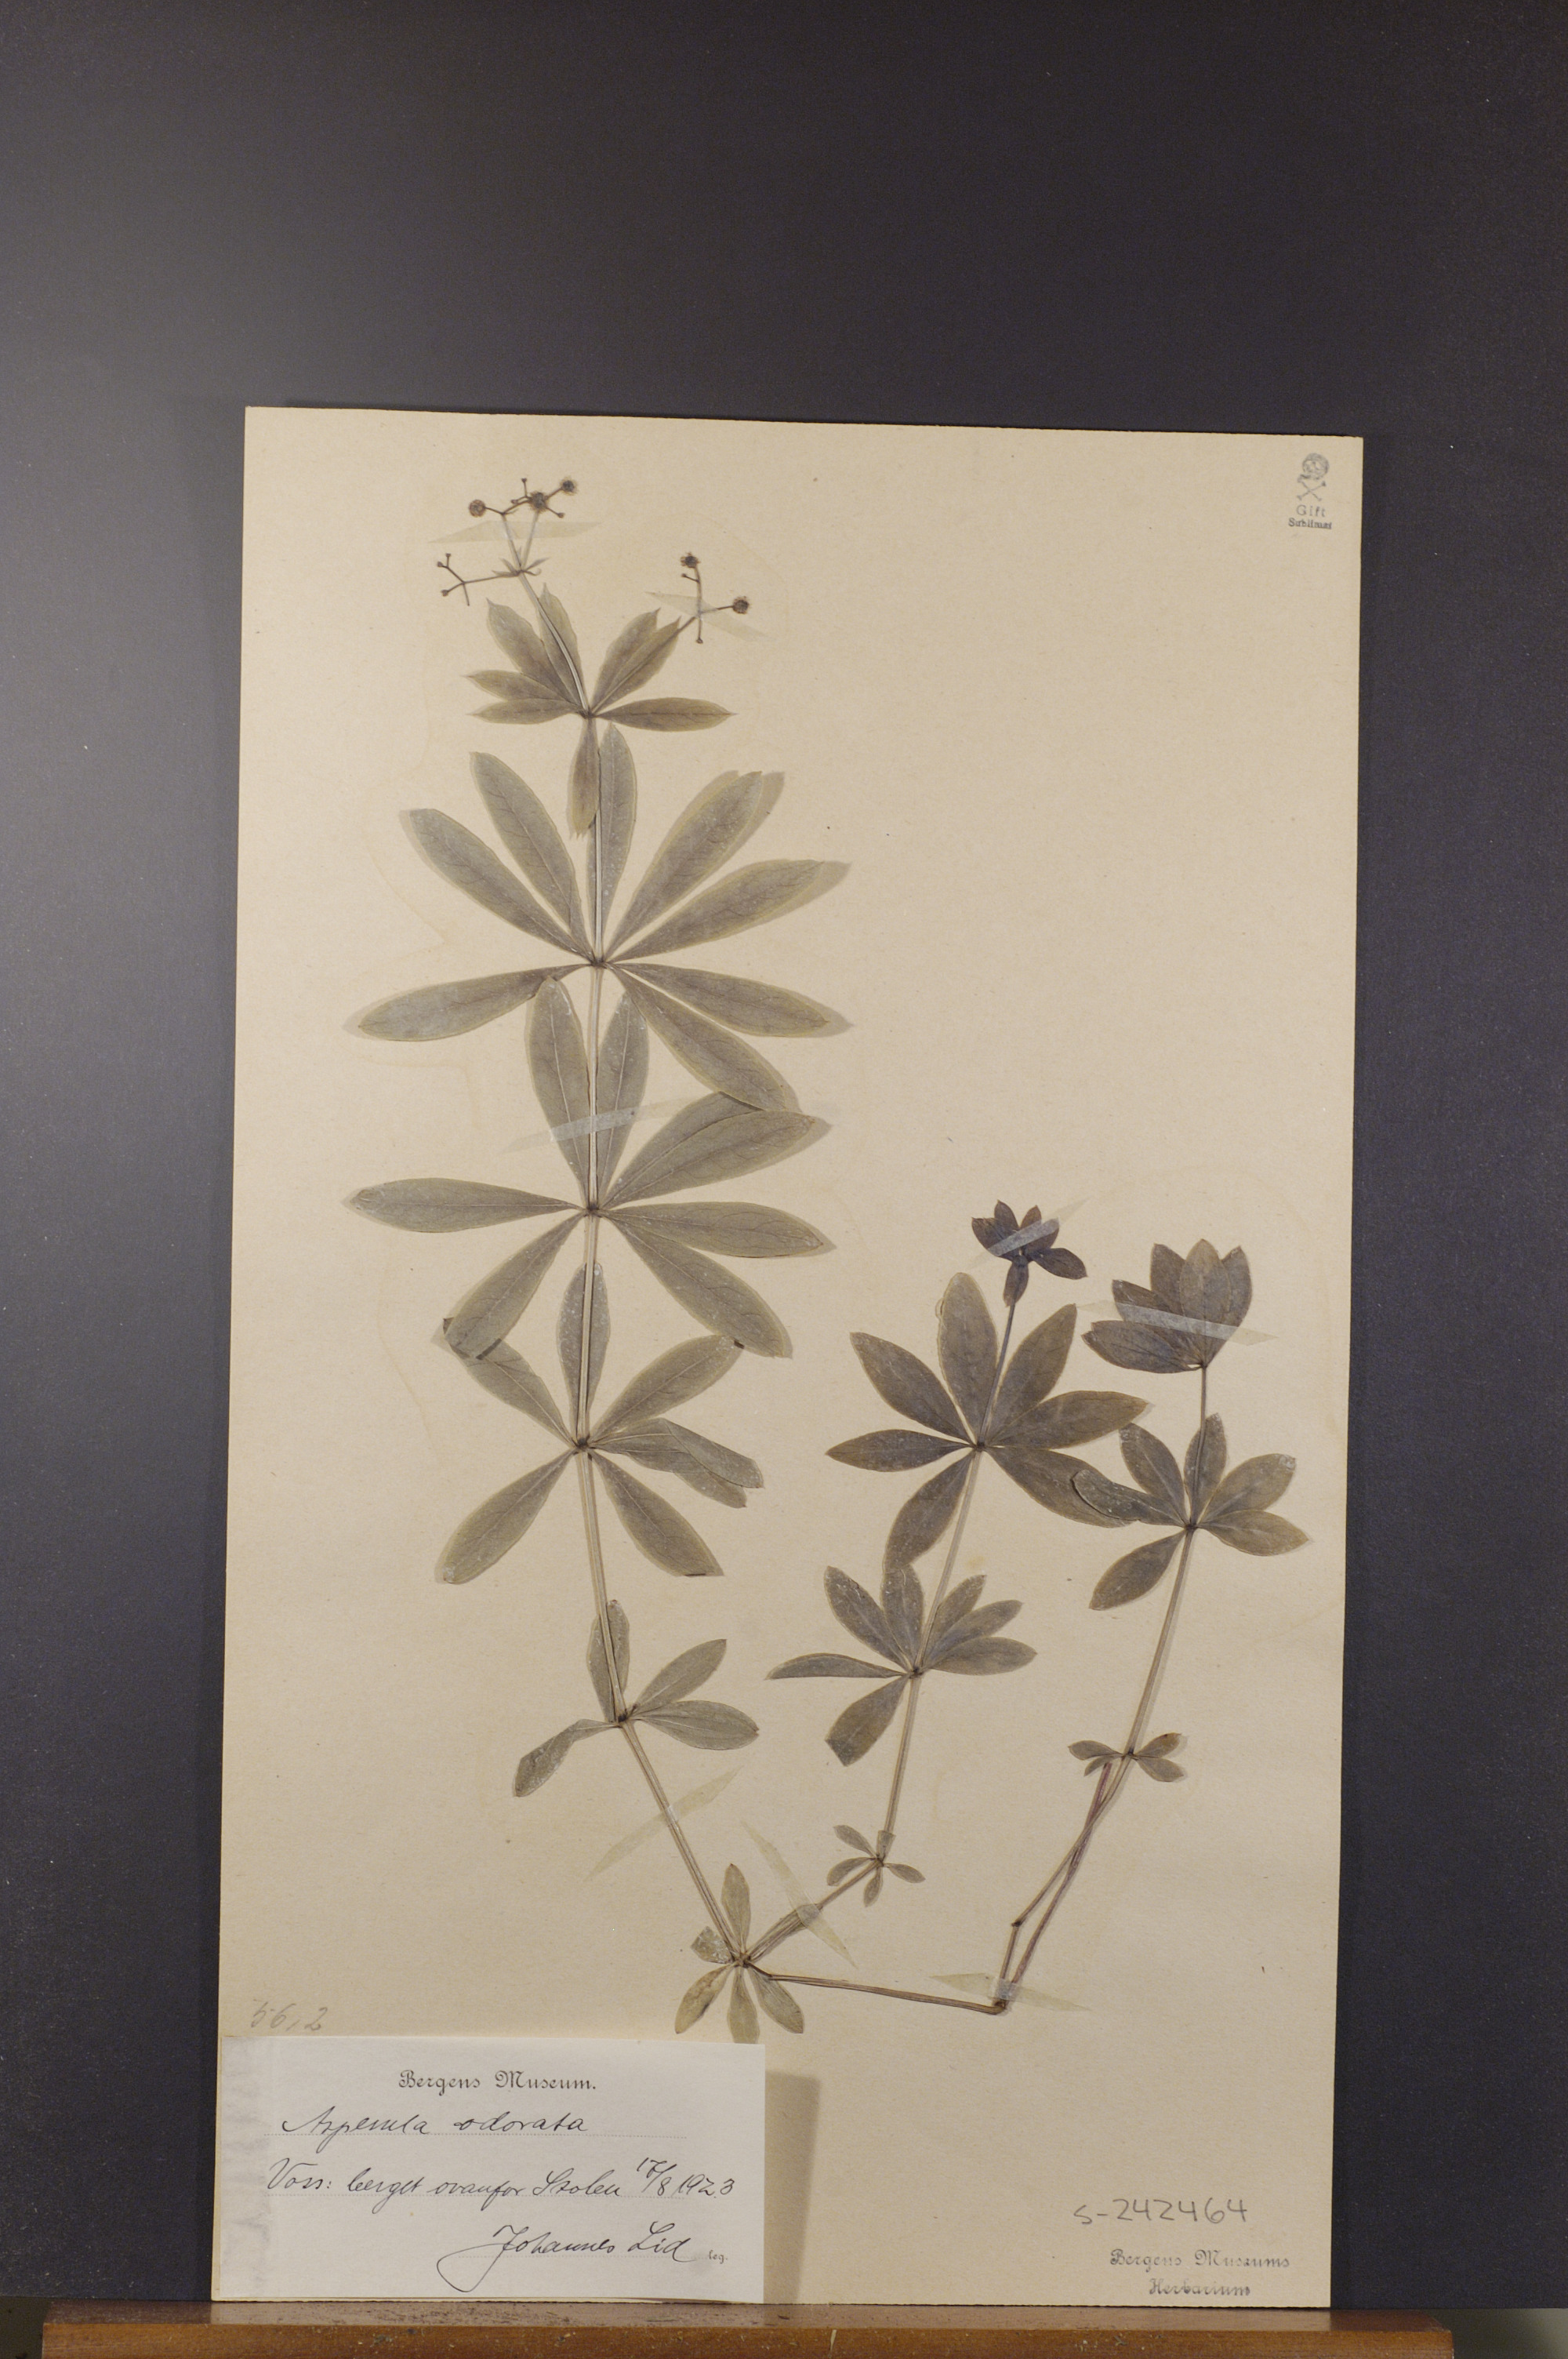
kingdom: Plantae
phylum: Tracheophyta
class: Magnoliopsida
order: Gentianales
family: Rubiaceae
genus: Galium
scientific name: Galium odoratum
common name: Sweet woodruff
